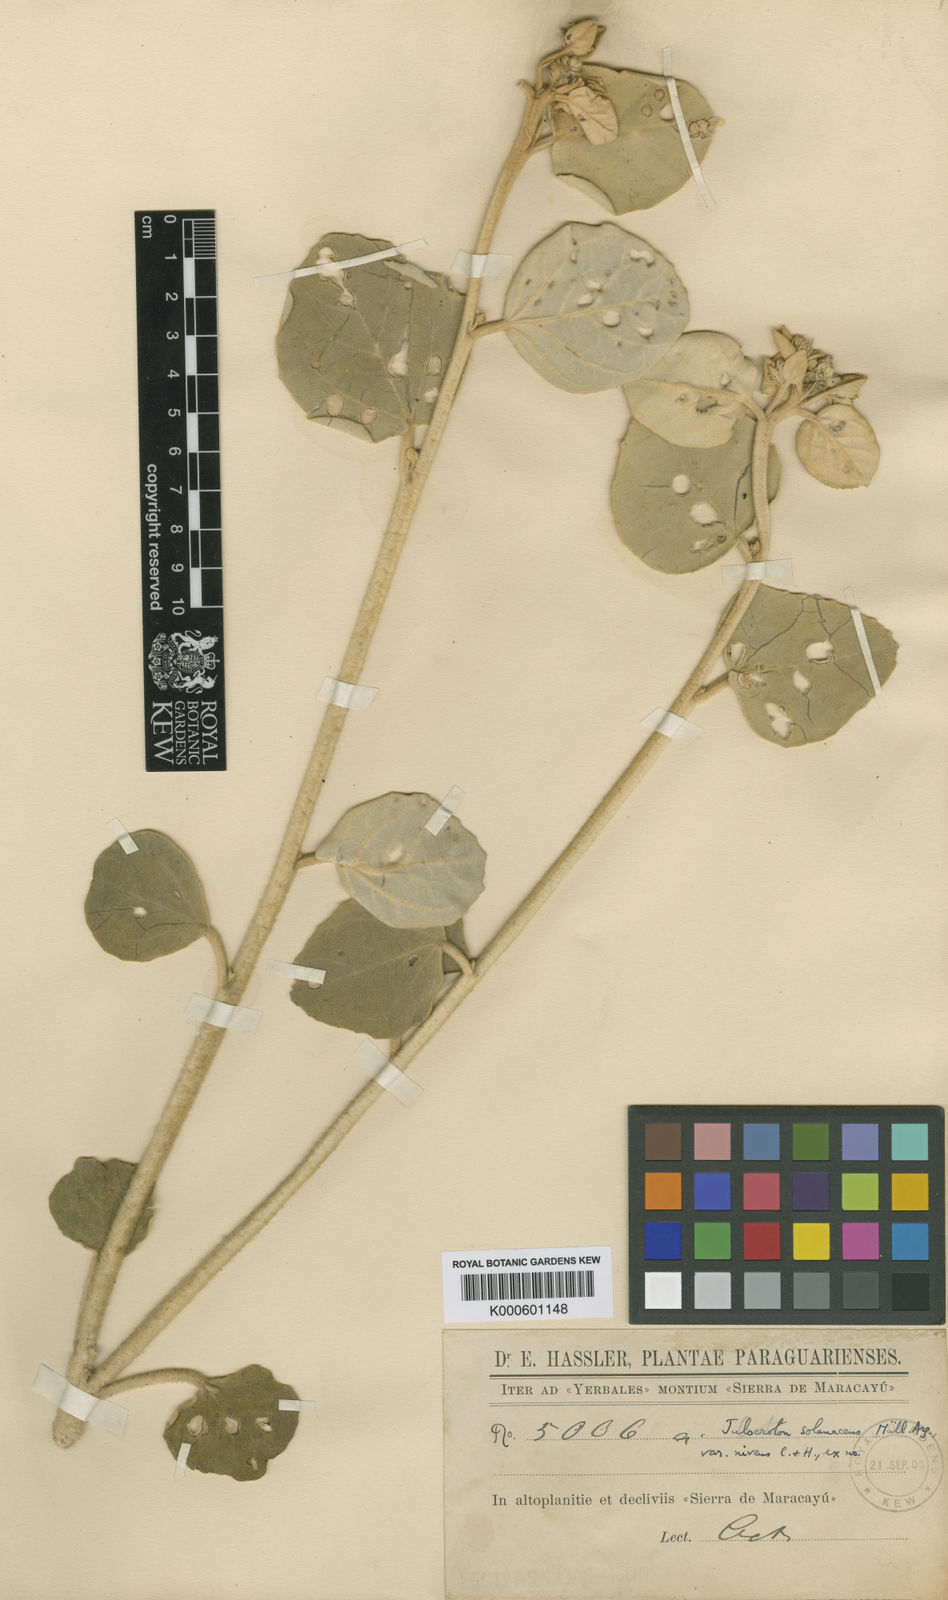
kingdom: Plantae
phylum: Tracheophyta
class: Magnoliopsida
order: Malpighiales
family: Euphorbiaceae
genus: Croton
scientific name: Croton
